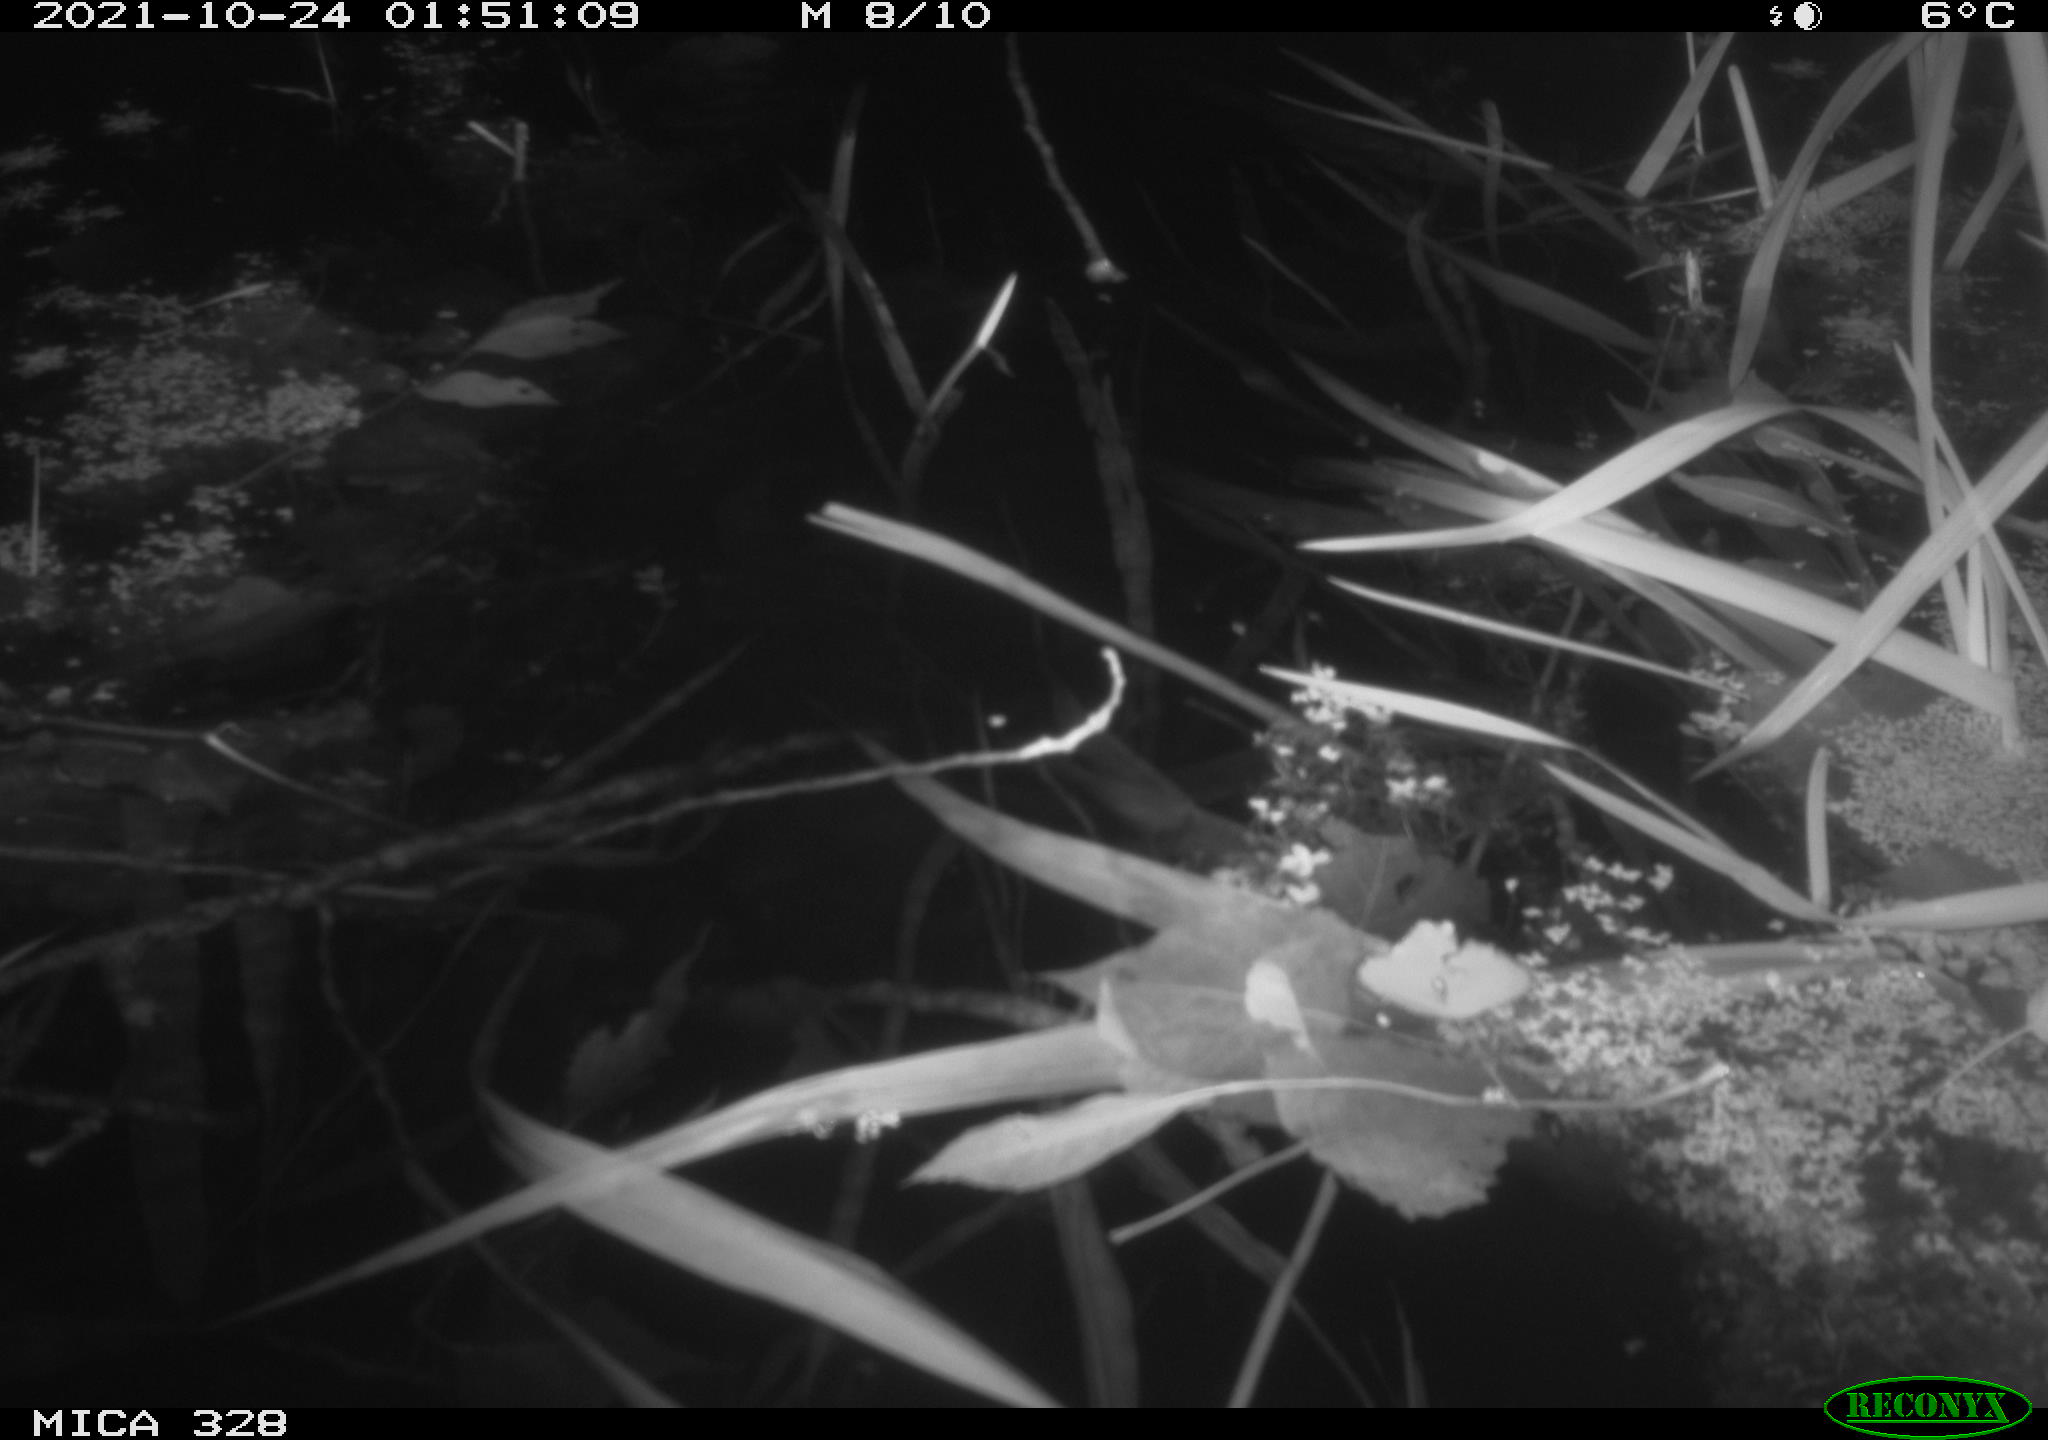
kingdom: Animalia
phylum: Chordata
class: Mammalia
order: Rodentia
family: Cricetidae
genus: Ondatra
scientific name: Ondatra zibethicus
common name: Muskrat
